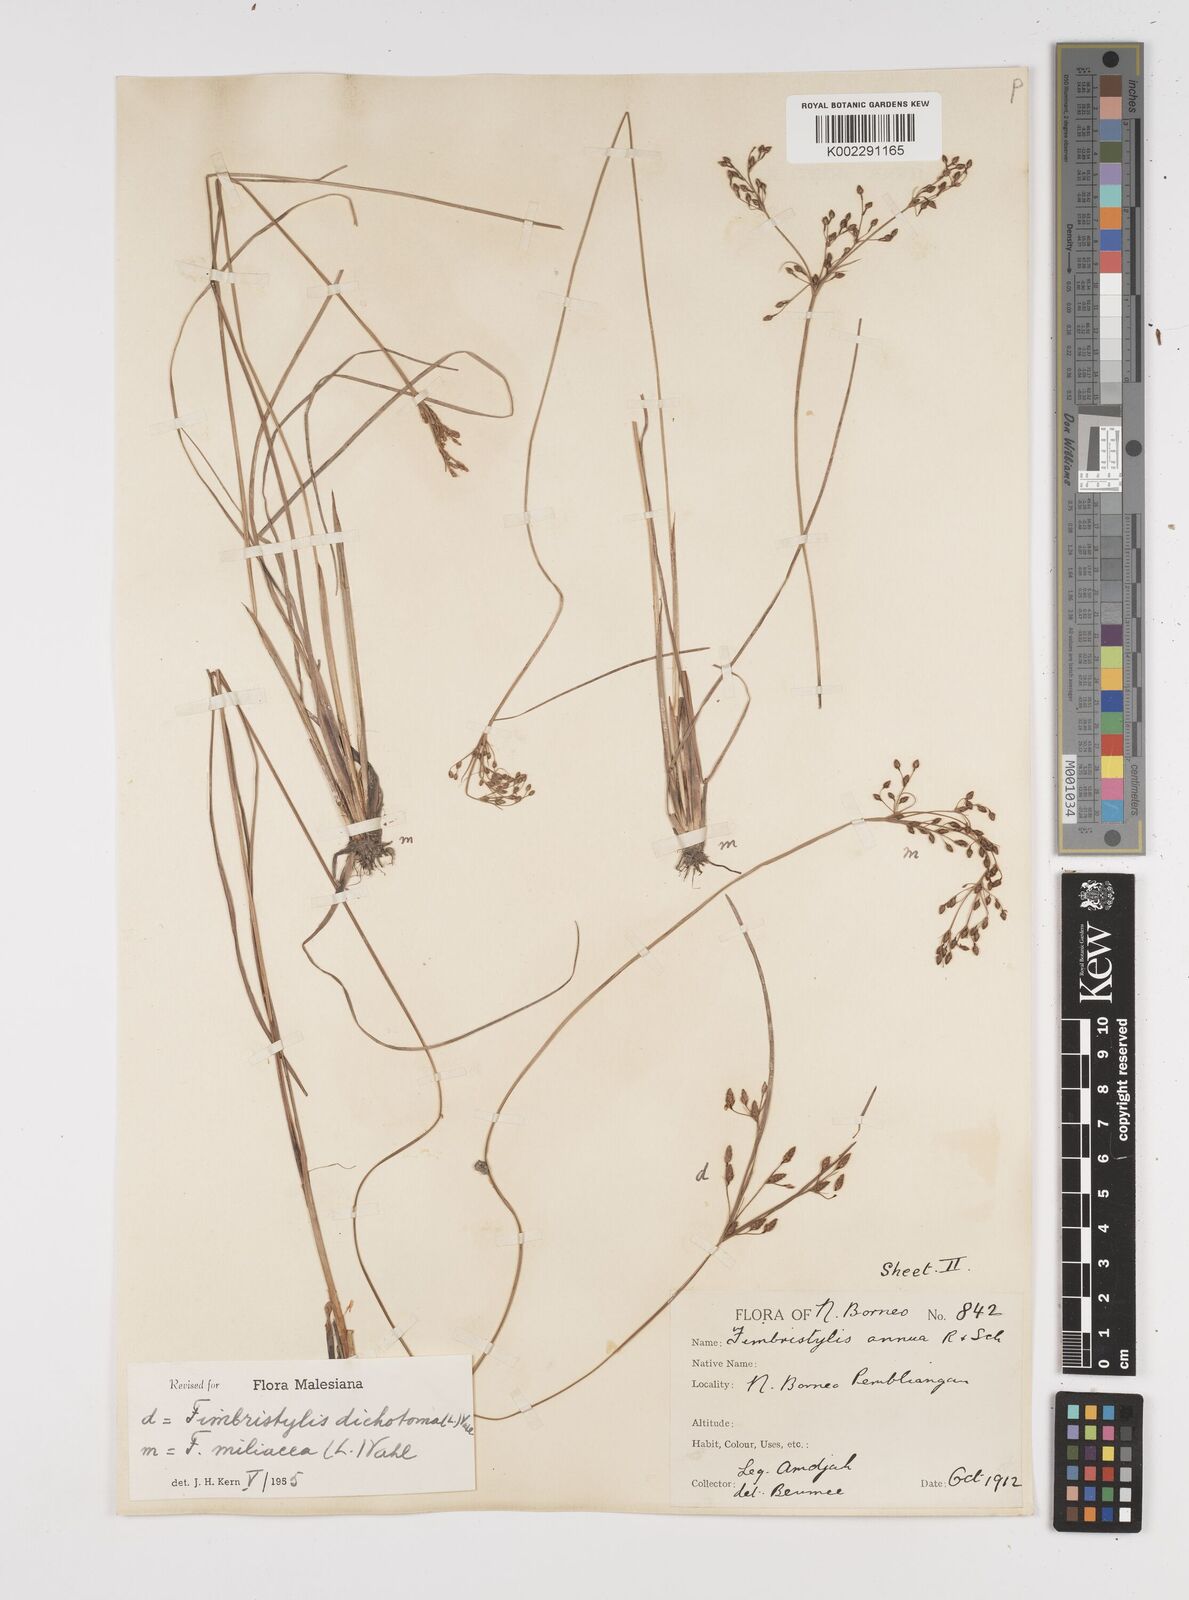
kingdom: Plantae
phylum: Tracheophyta
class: Liliopsida
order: Poales
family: Cyperaceae
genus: Fimbristylis
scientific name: Fimbristylis dichotoma
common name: Forked fimbry
